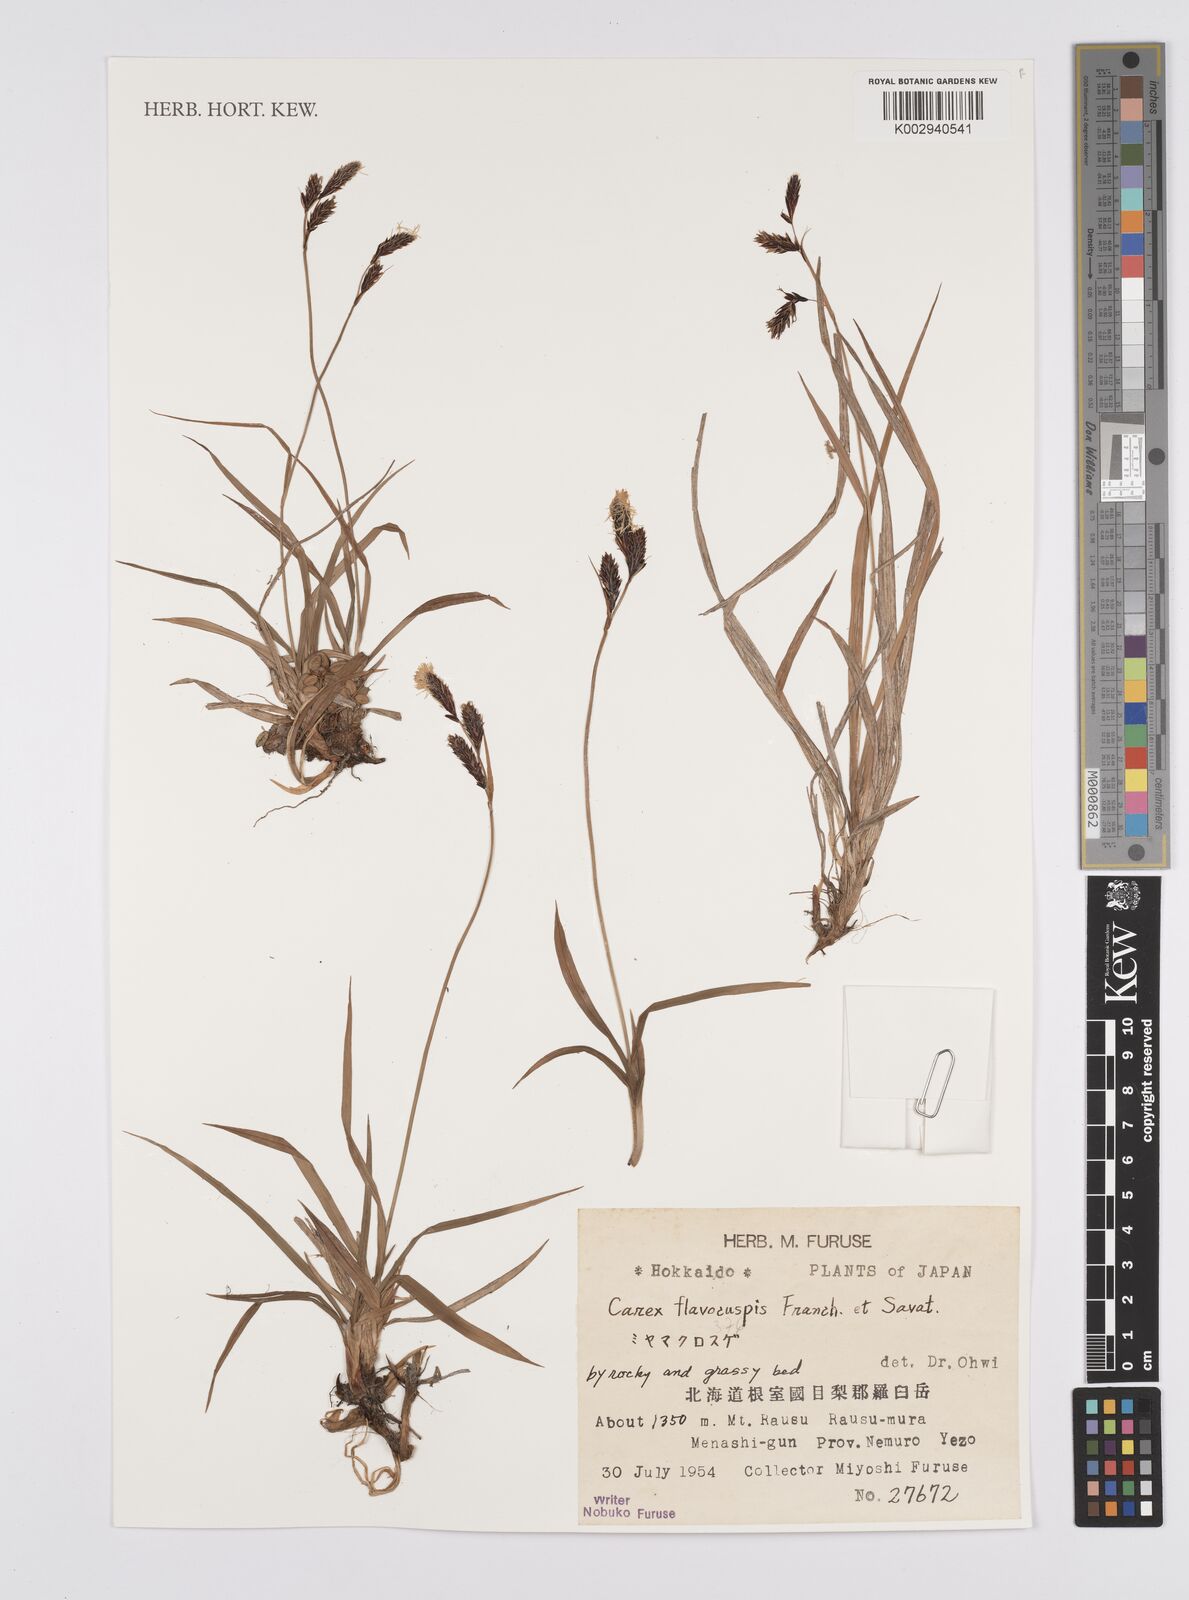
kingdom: Plantae
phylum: Tracheophyta
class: Liliopsida
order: Poales
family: Cyperaceae
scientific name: Cyperaceae
